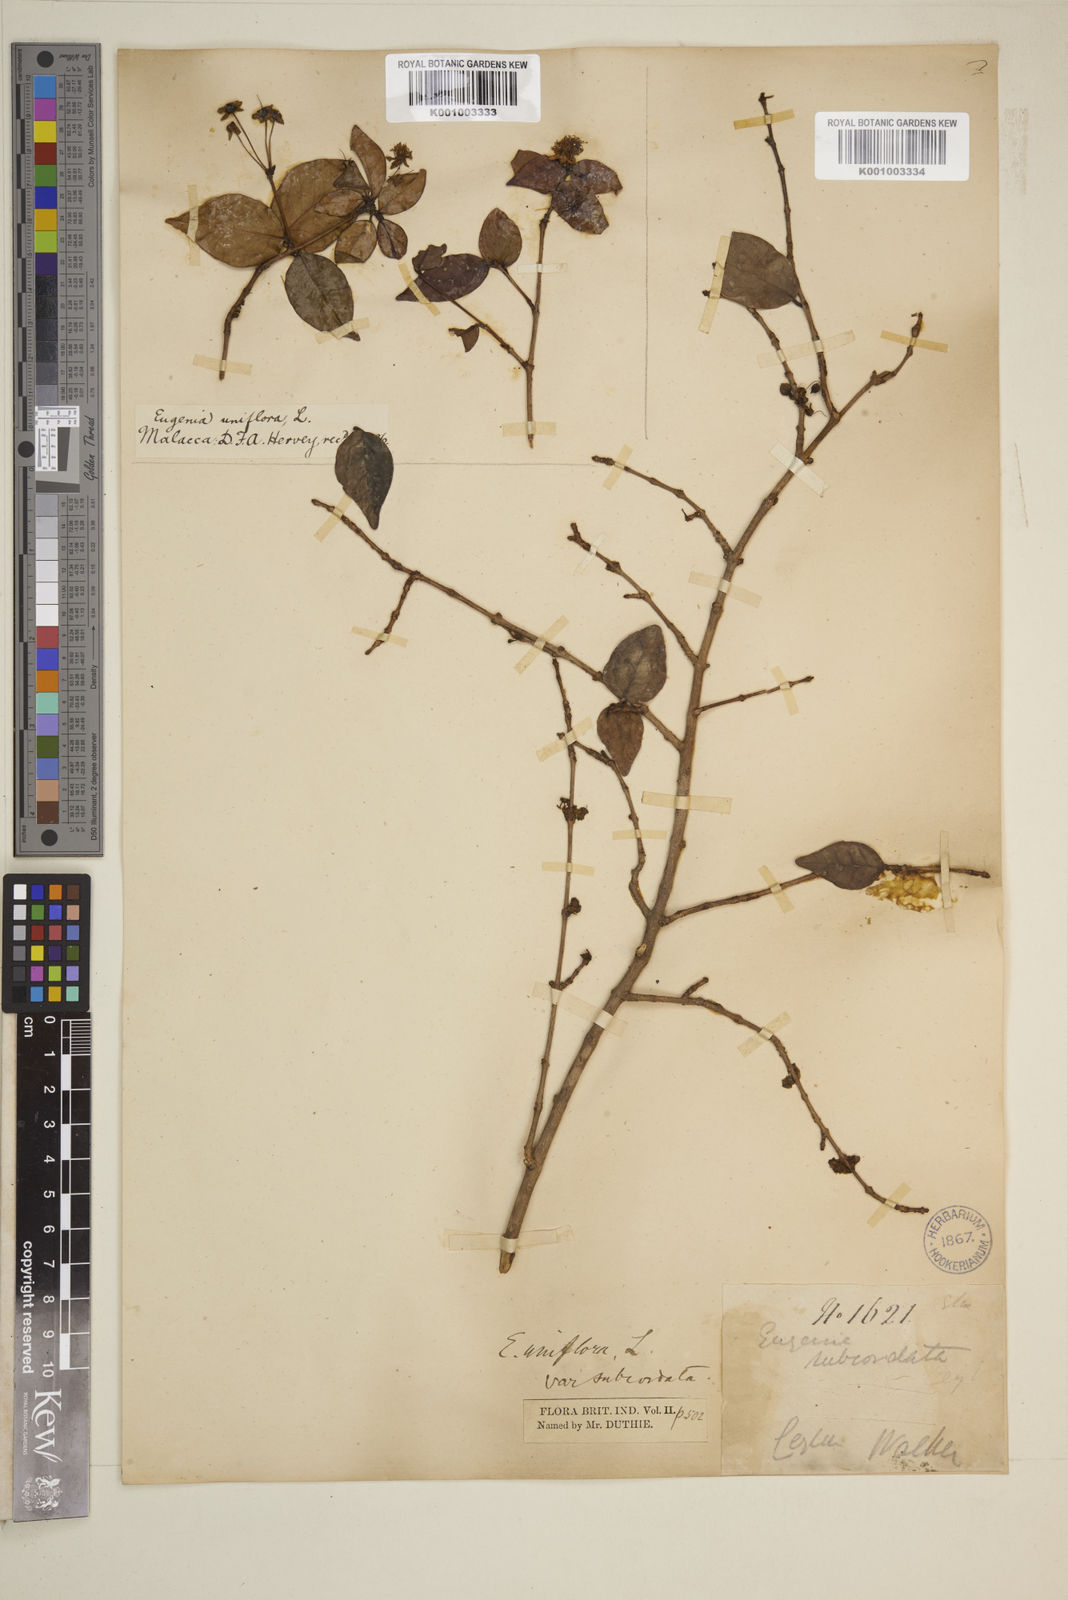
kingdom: Plantae
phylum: Tracheophyta
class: Magnoliopsida
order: Myrtales
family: Myrtaceae
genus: Eugenia
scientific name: Eugenia uniflora
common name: Surinam cherry
